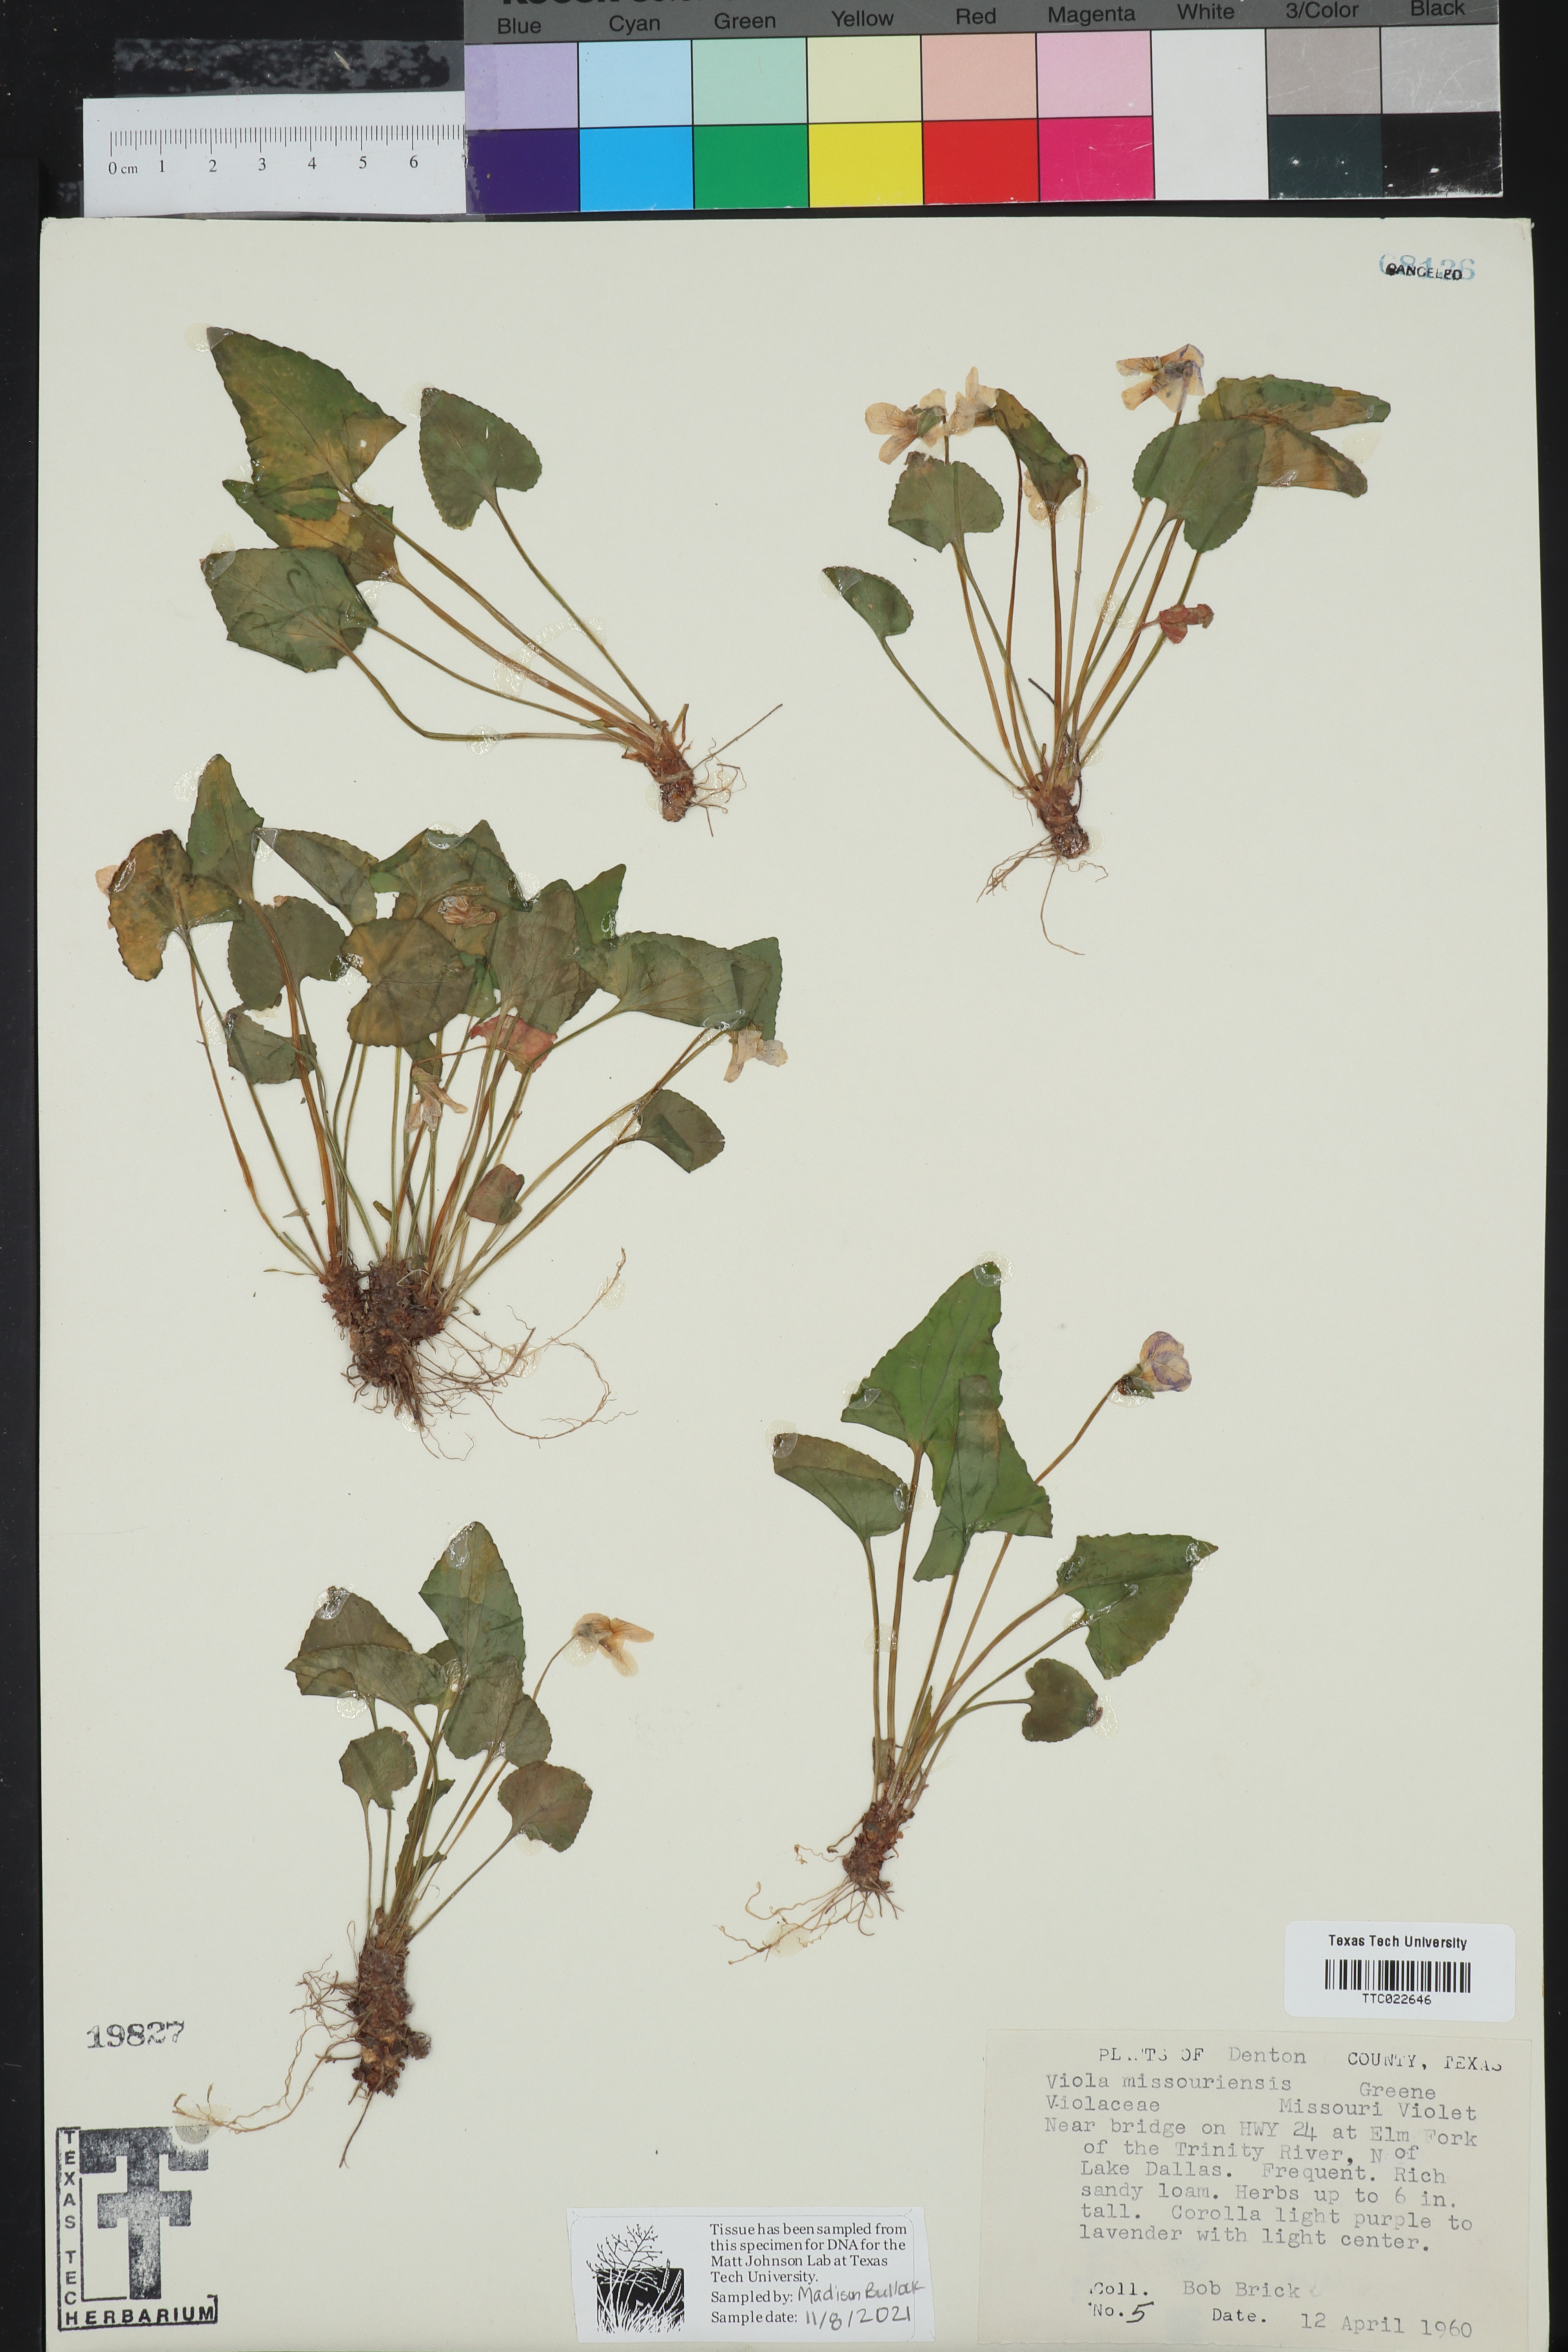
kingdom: Plantae
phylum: Tracheophyta
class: Magnoliopsida
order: Malpighiales
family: Violaceae
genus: Viola
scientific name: Viola missouriensis
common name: Missouri violet
